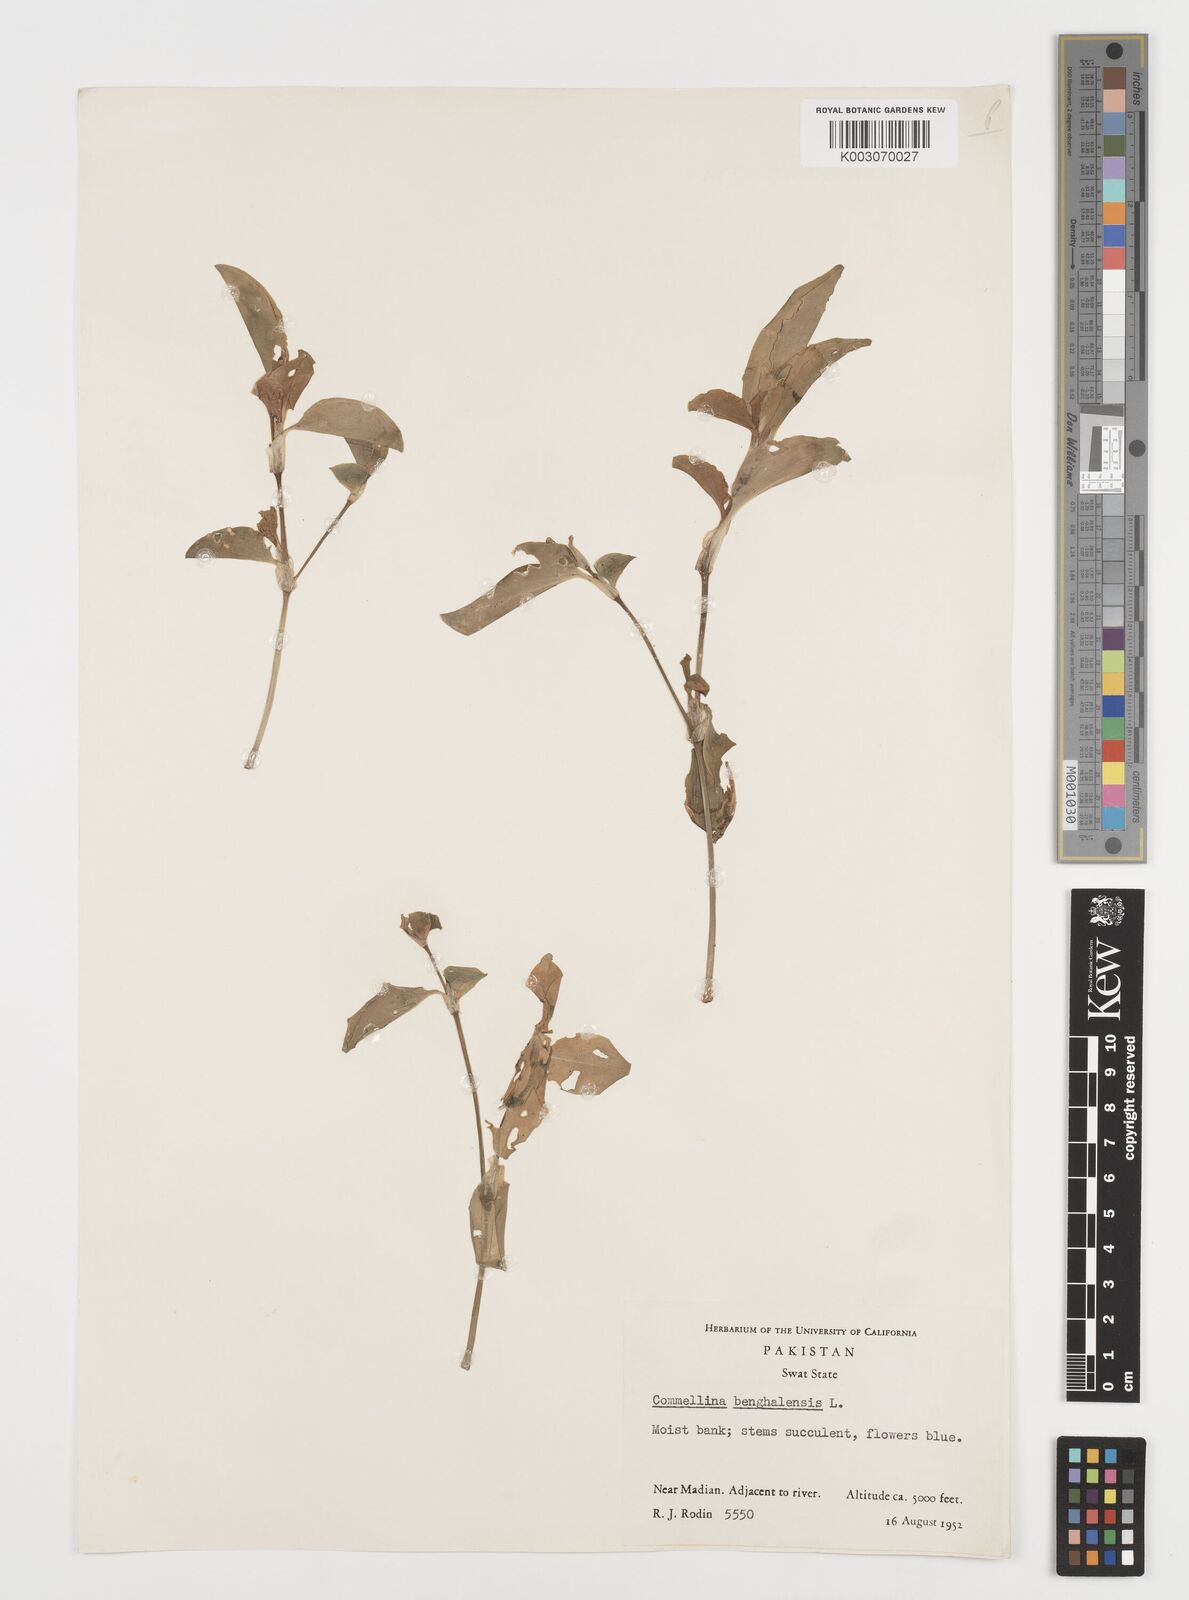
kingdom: Plantae
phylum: Tracheophyta
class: Liliopsida
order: Commelinales
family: Commelinaceae
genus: Commelina
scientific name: Commelina
